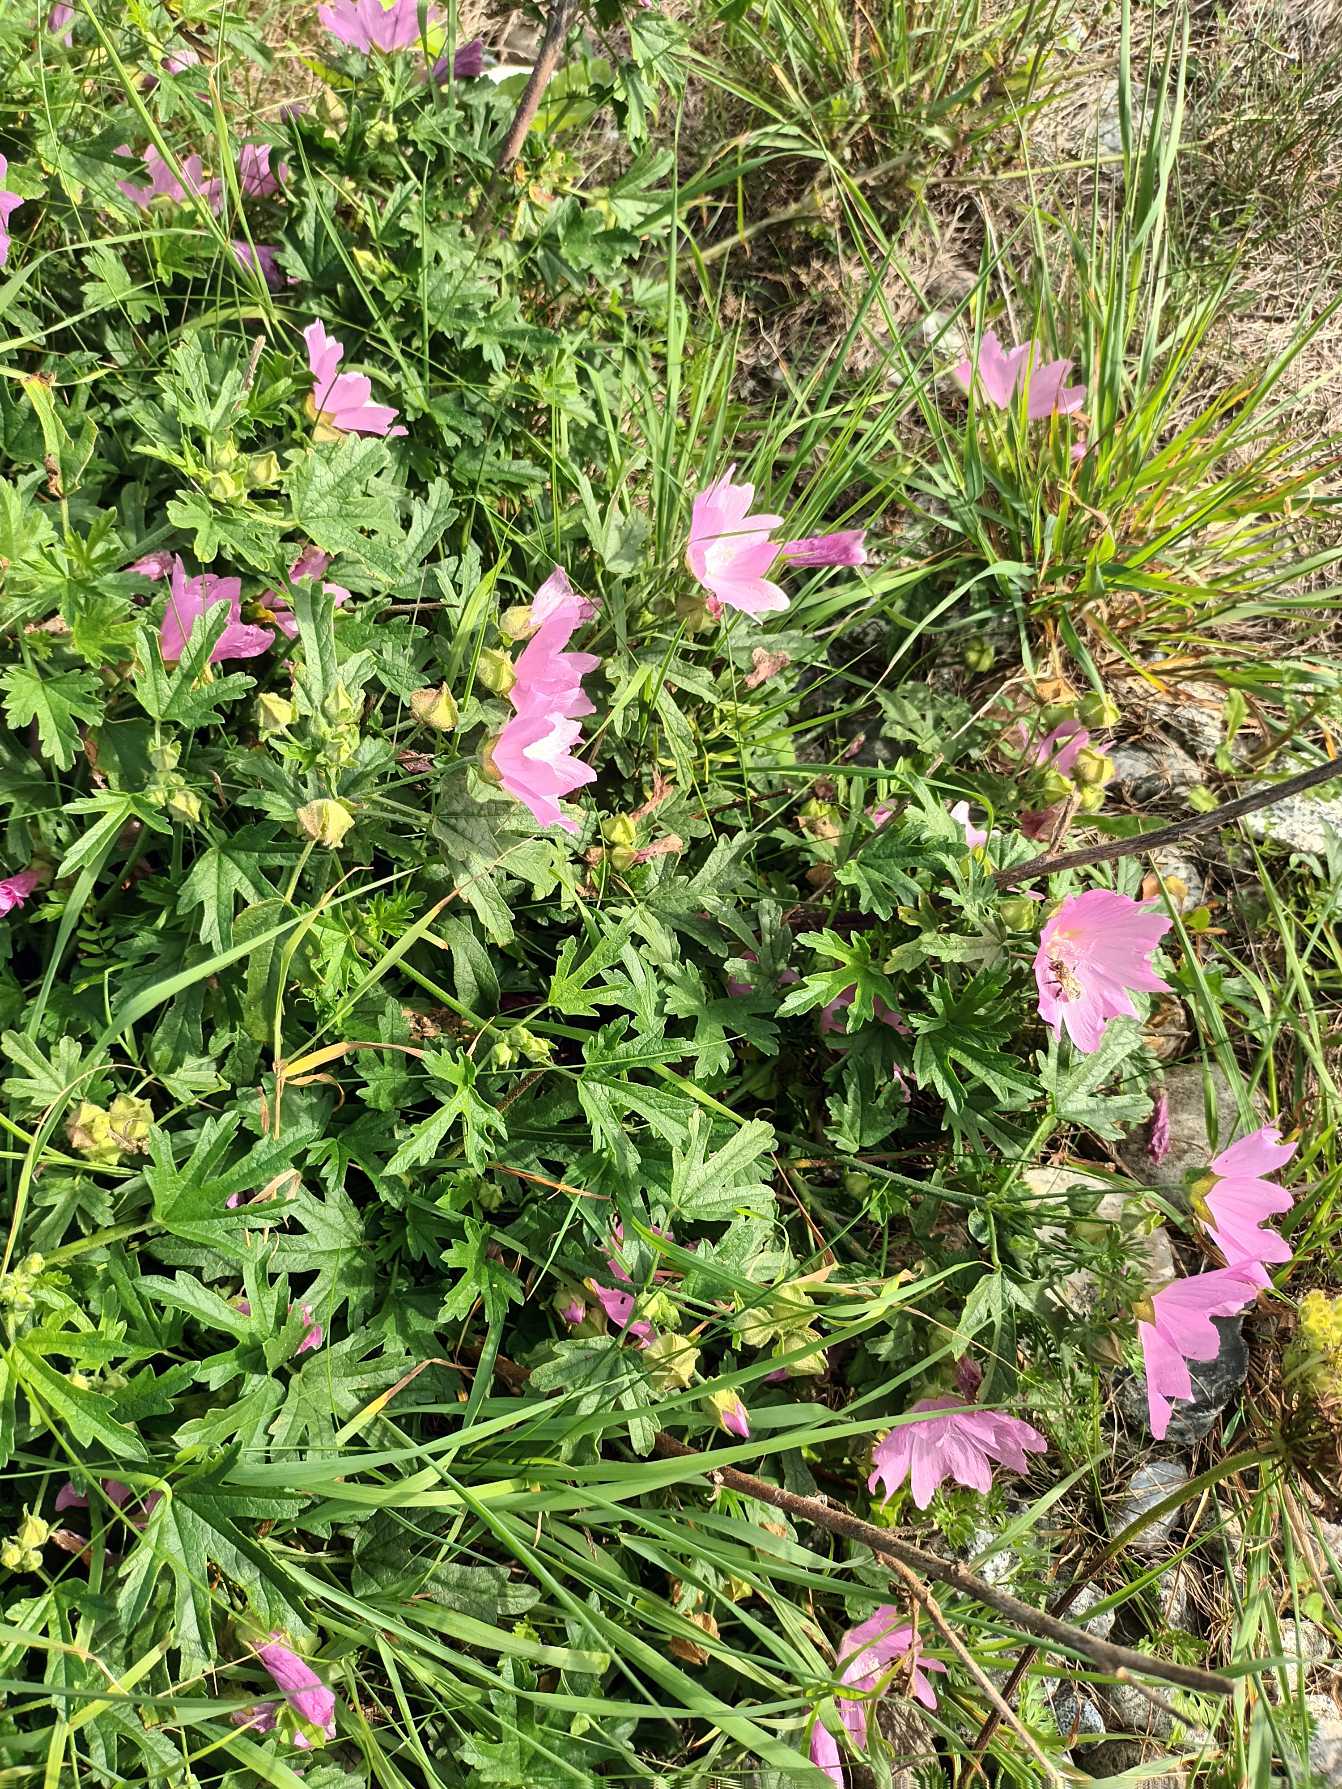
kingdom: Plantae
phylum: Tracheophyta
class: Magnoliopsida
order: Malvales
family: Malvaceae
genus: Malva
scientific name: Malva alcea
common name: Rosen-katost
